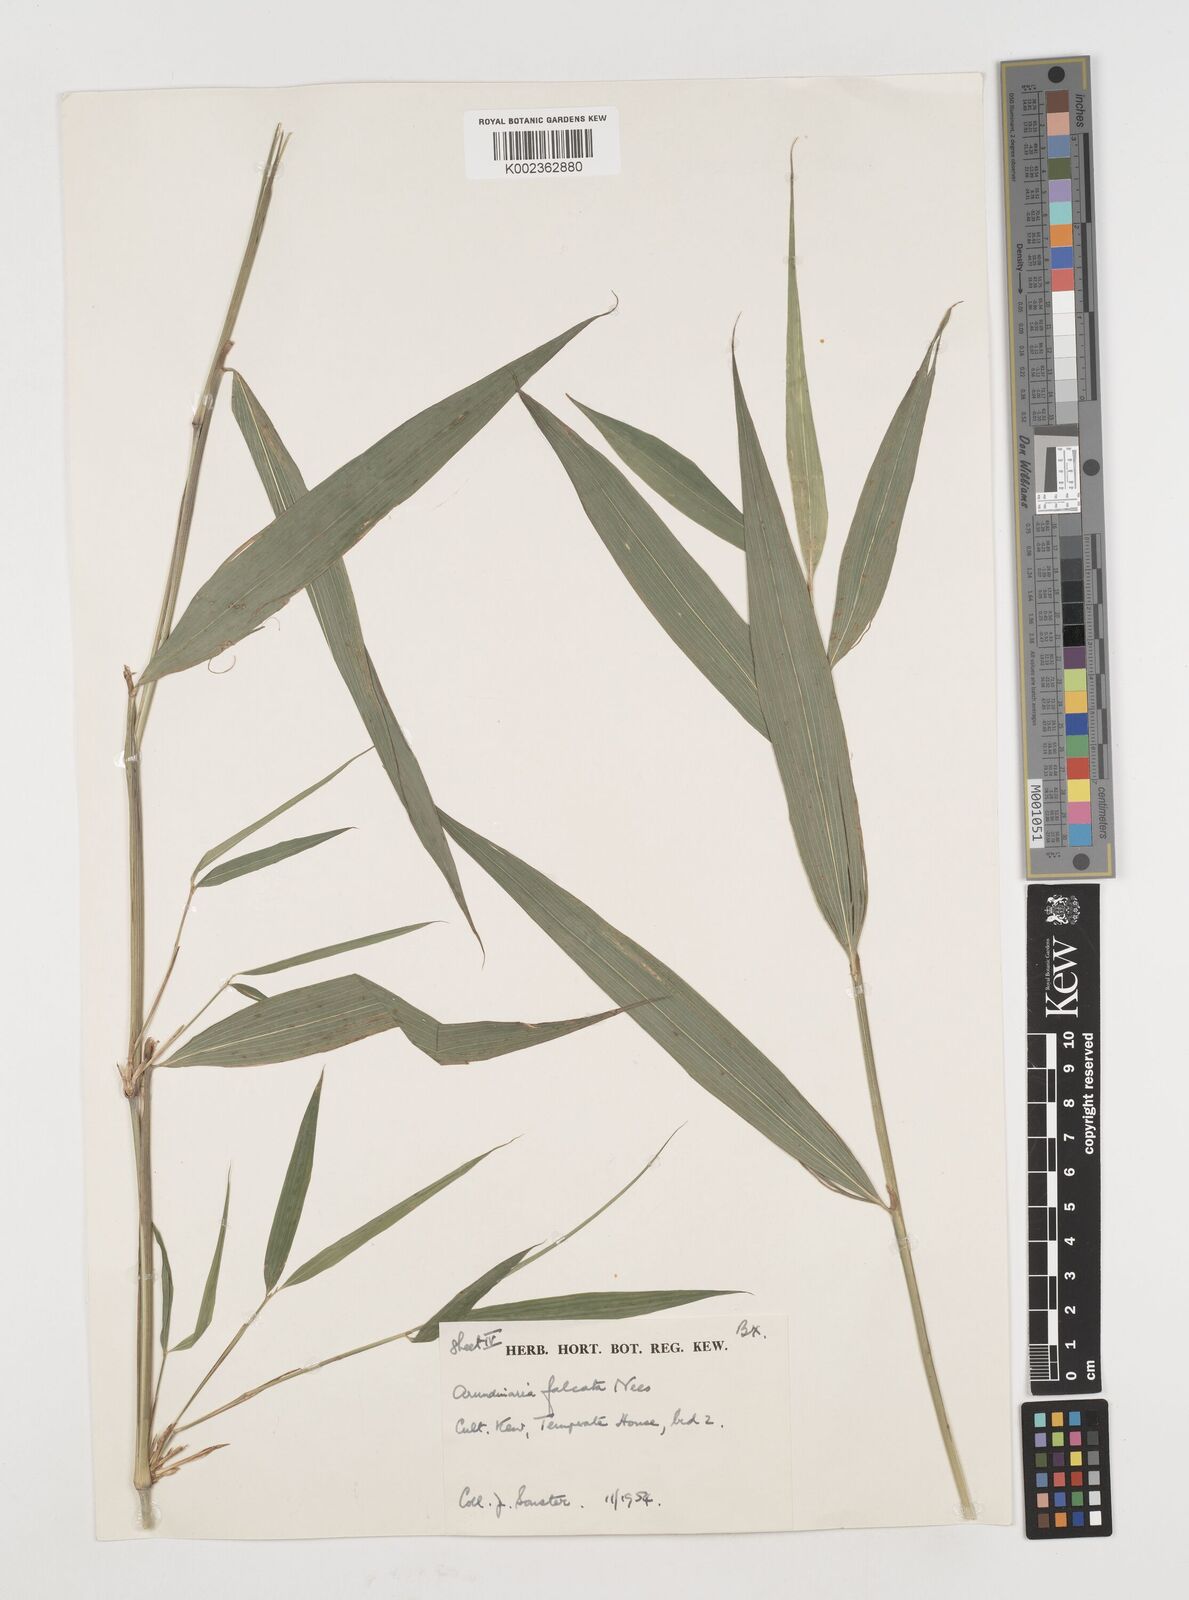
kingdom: Plantae
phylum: Tracheophyta
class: Liliopsida
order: Poales
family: Poaceae
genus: Drepanostachyum
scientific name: Drepanostachyum falcatum
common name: Himalayan bamboo
